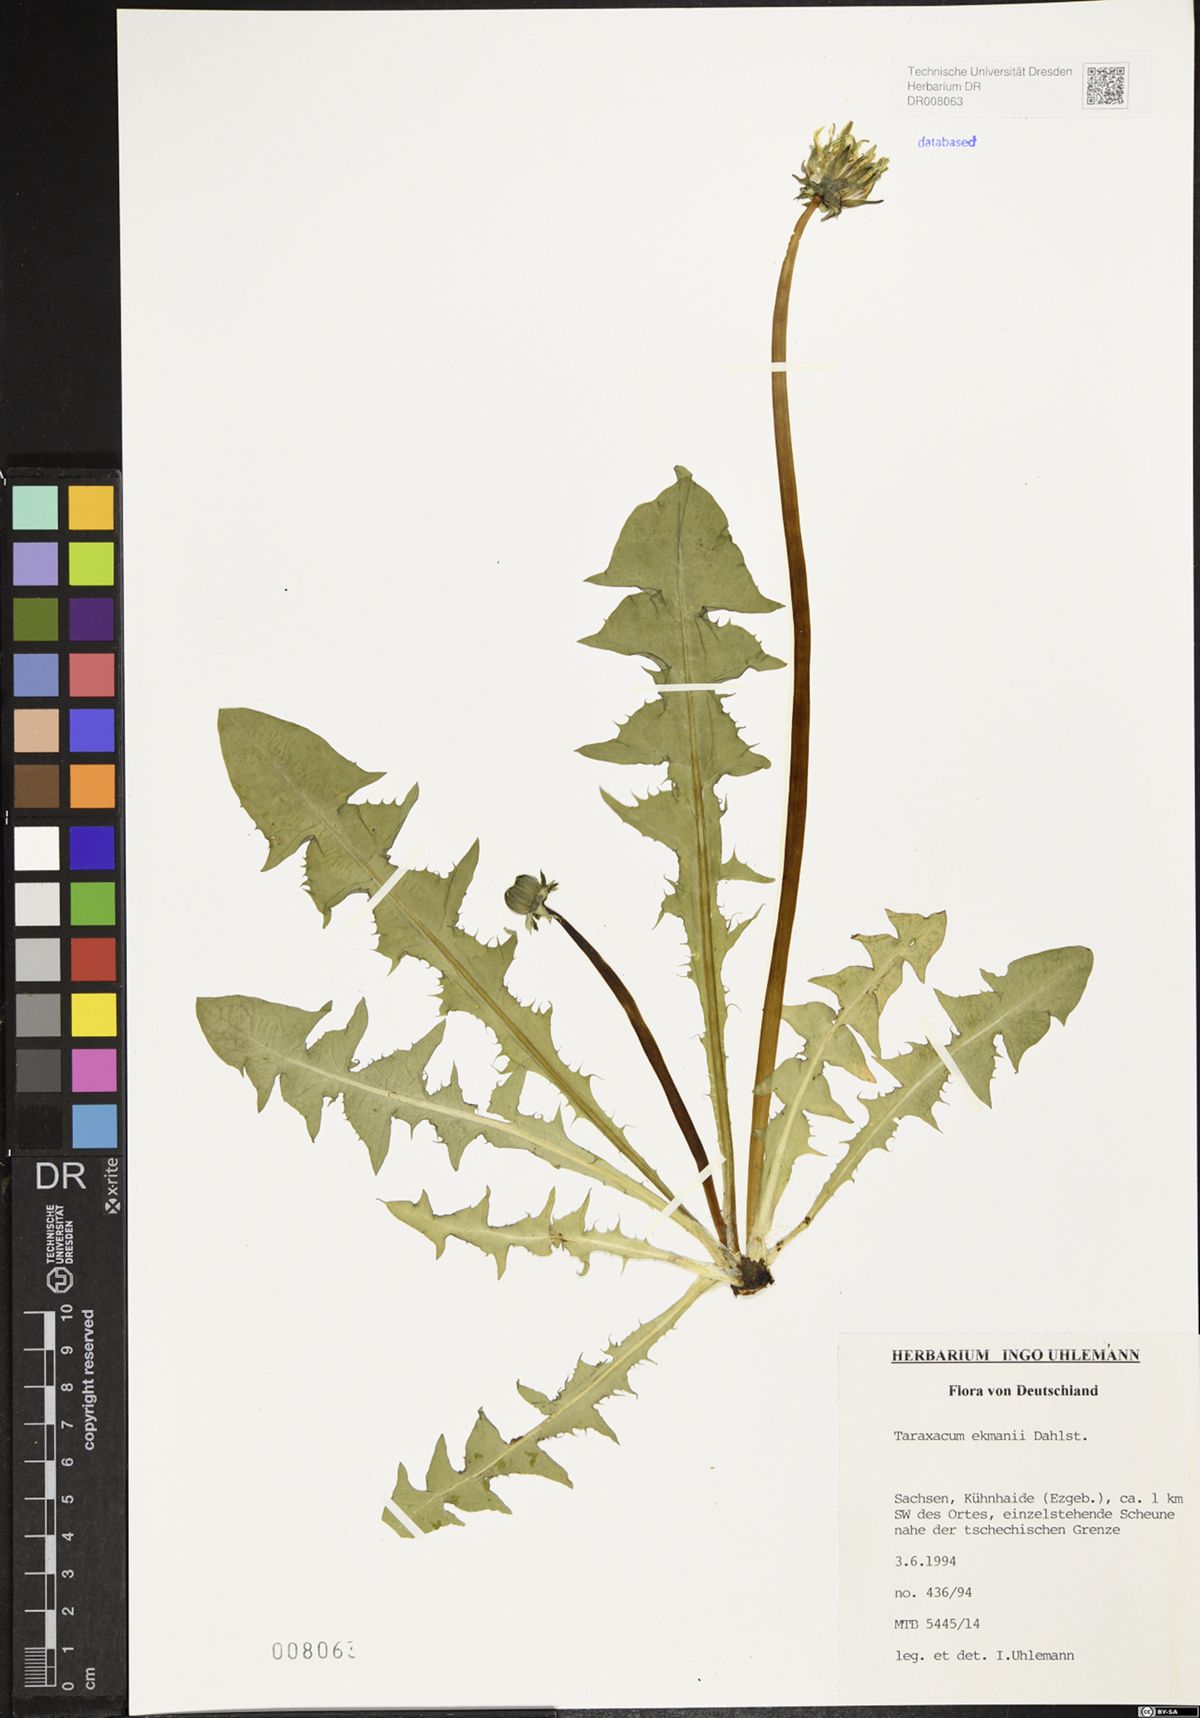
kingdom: Plantae
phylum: Tracheophyta
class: Magnoliopsida
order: Asterales
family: Asteraceae
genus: Taraxacum
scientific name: Taraxacum ekmanii
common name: Ekman's dandelion
